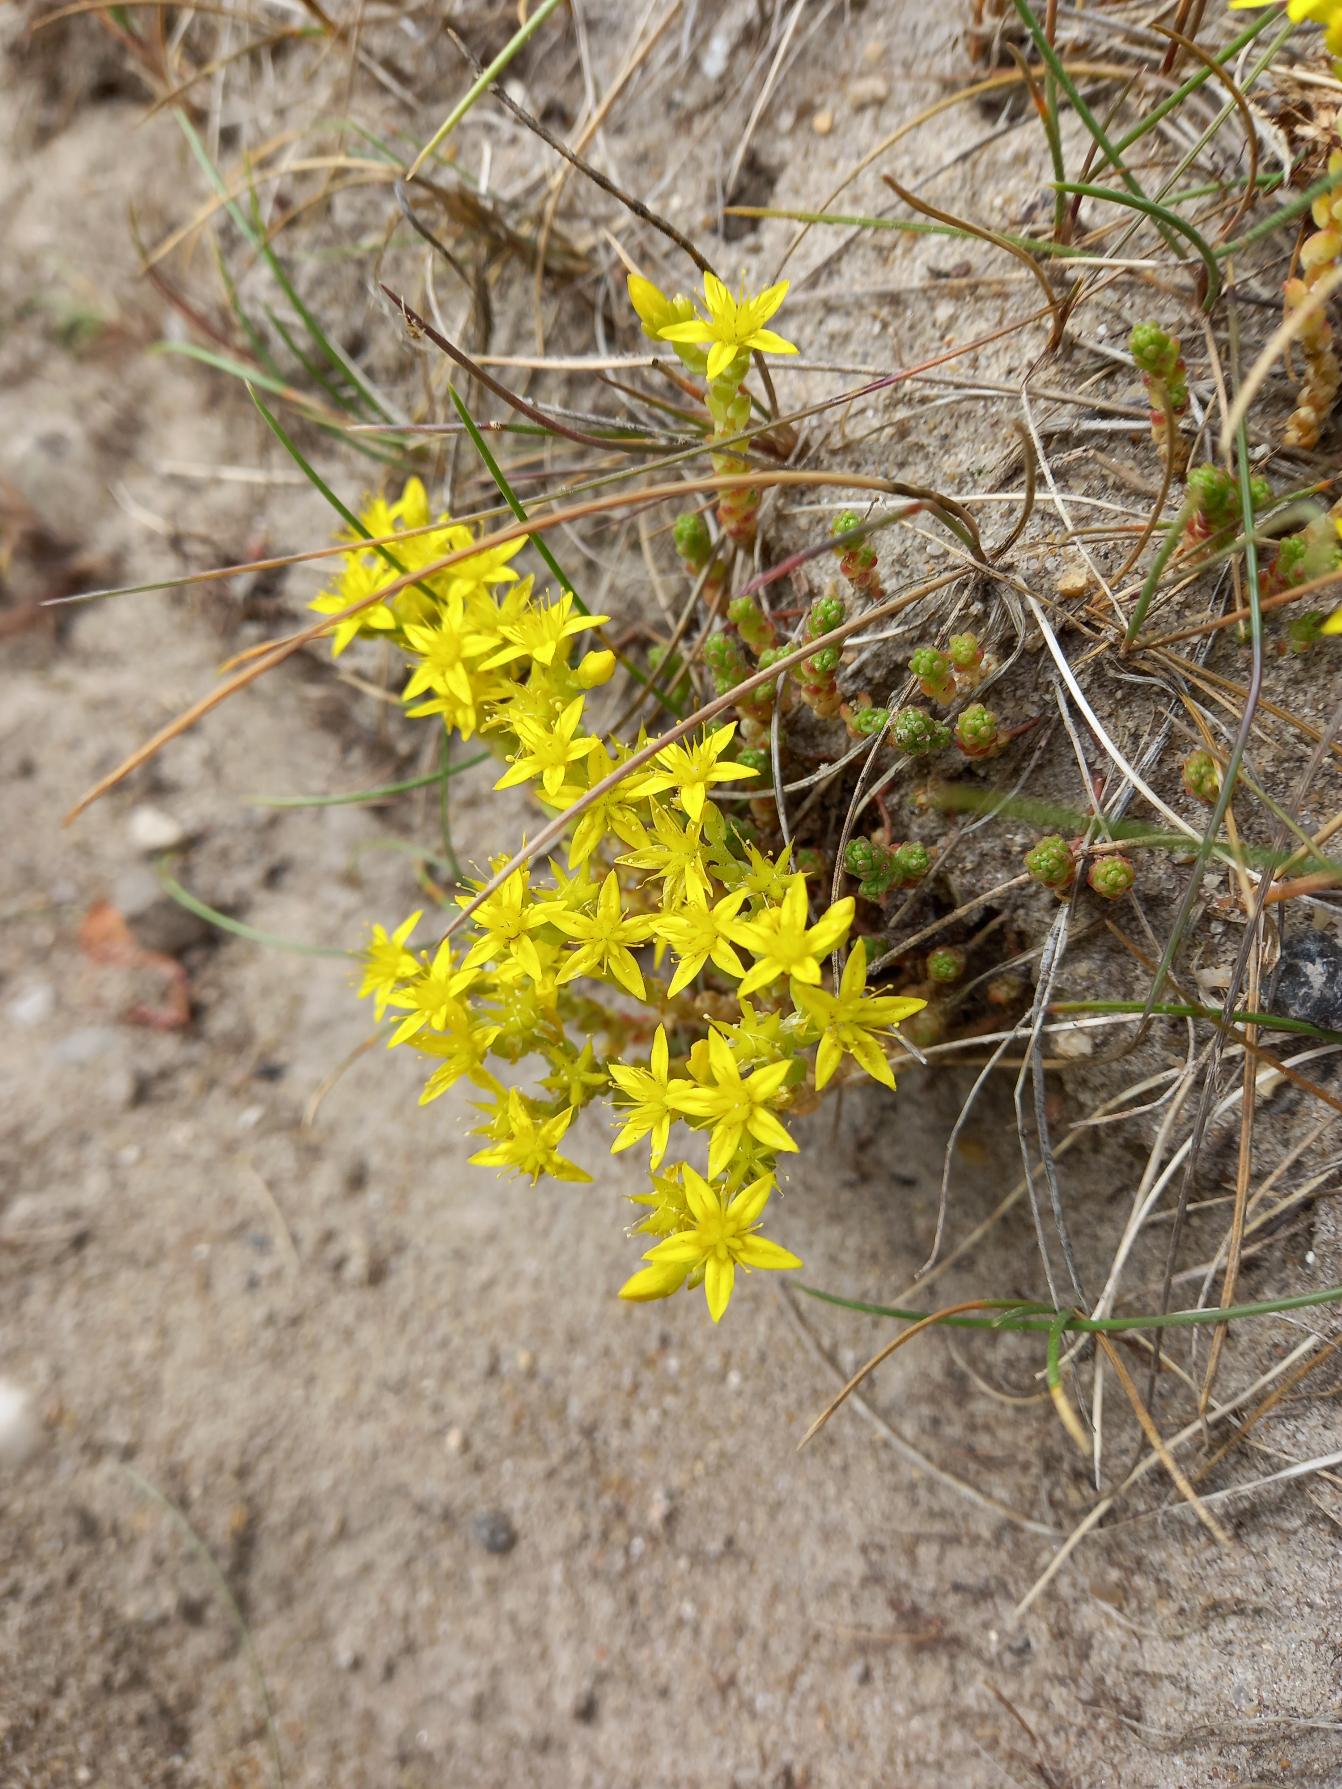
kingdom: Plantae
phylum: Tracheophyta
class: Magnoliopsida
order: Saxifragales
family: Crassulaceae
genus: Sedum
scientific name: Sedum acre
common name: Bidende stenurt
